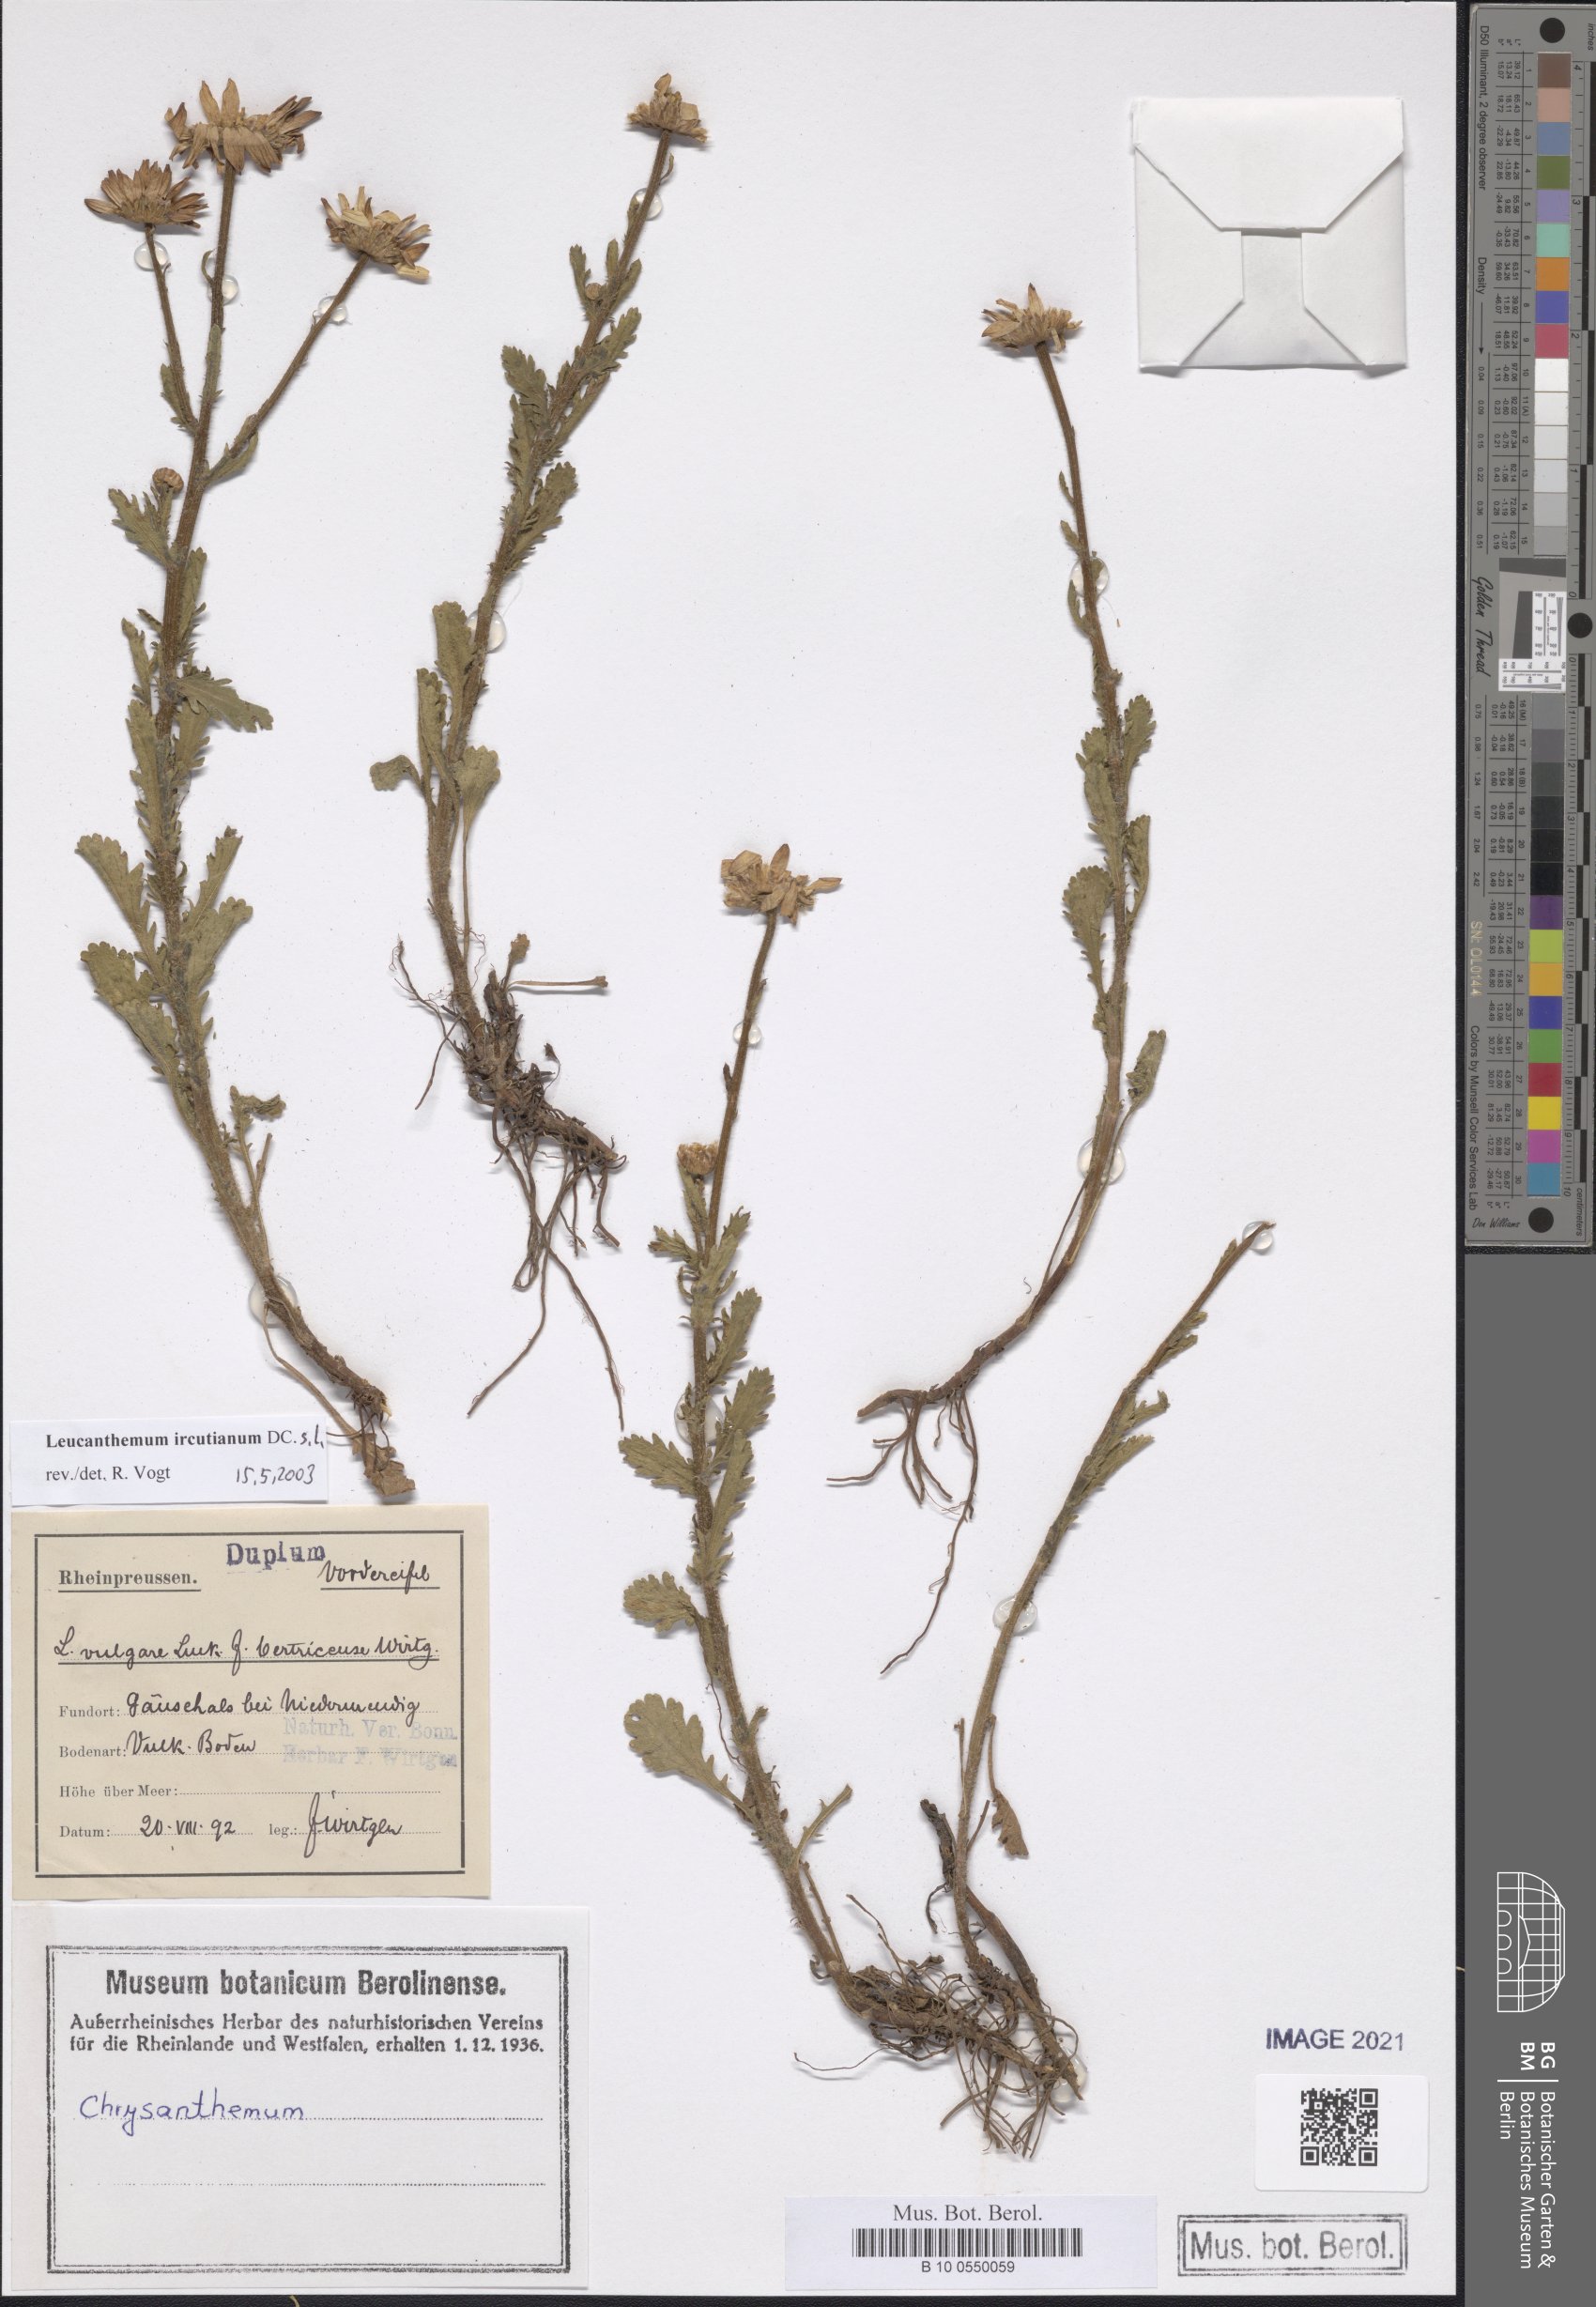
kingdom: Plantae
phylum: Tracheophyta
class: Magnoliopsida
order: Asterales
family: Asteraceae
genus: Leucanthemum
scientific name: Leucanthemum ircutianum
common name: Daisy
